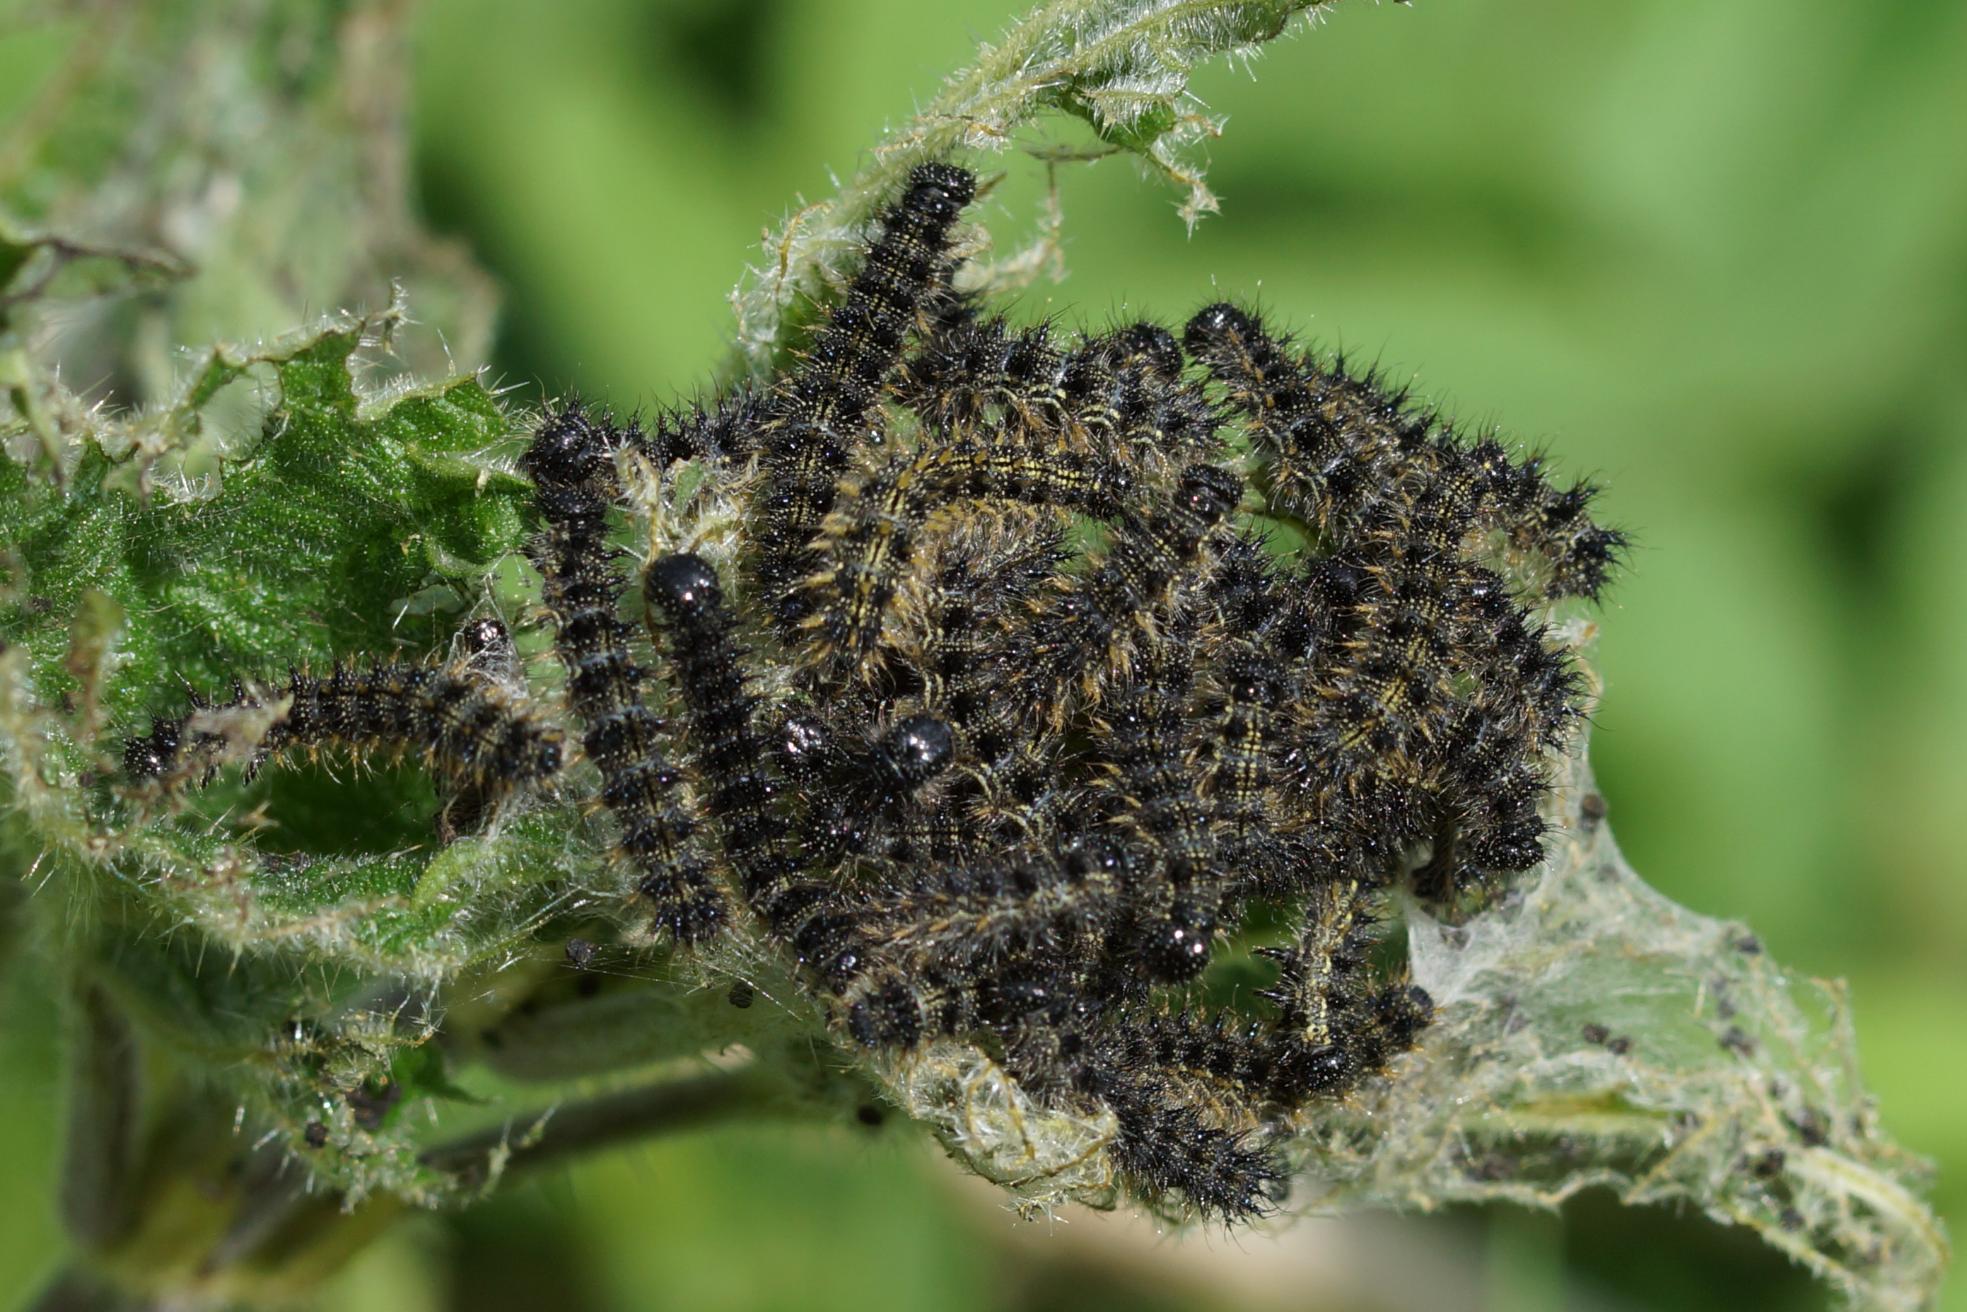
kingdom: Animalia
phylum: Arthropoda
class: Insecta
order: Lepidoptera
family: Nymphalidae
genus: Aglais
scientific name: Aglais urticae
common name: Nældens takvinge
